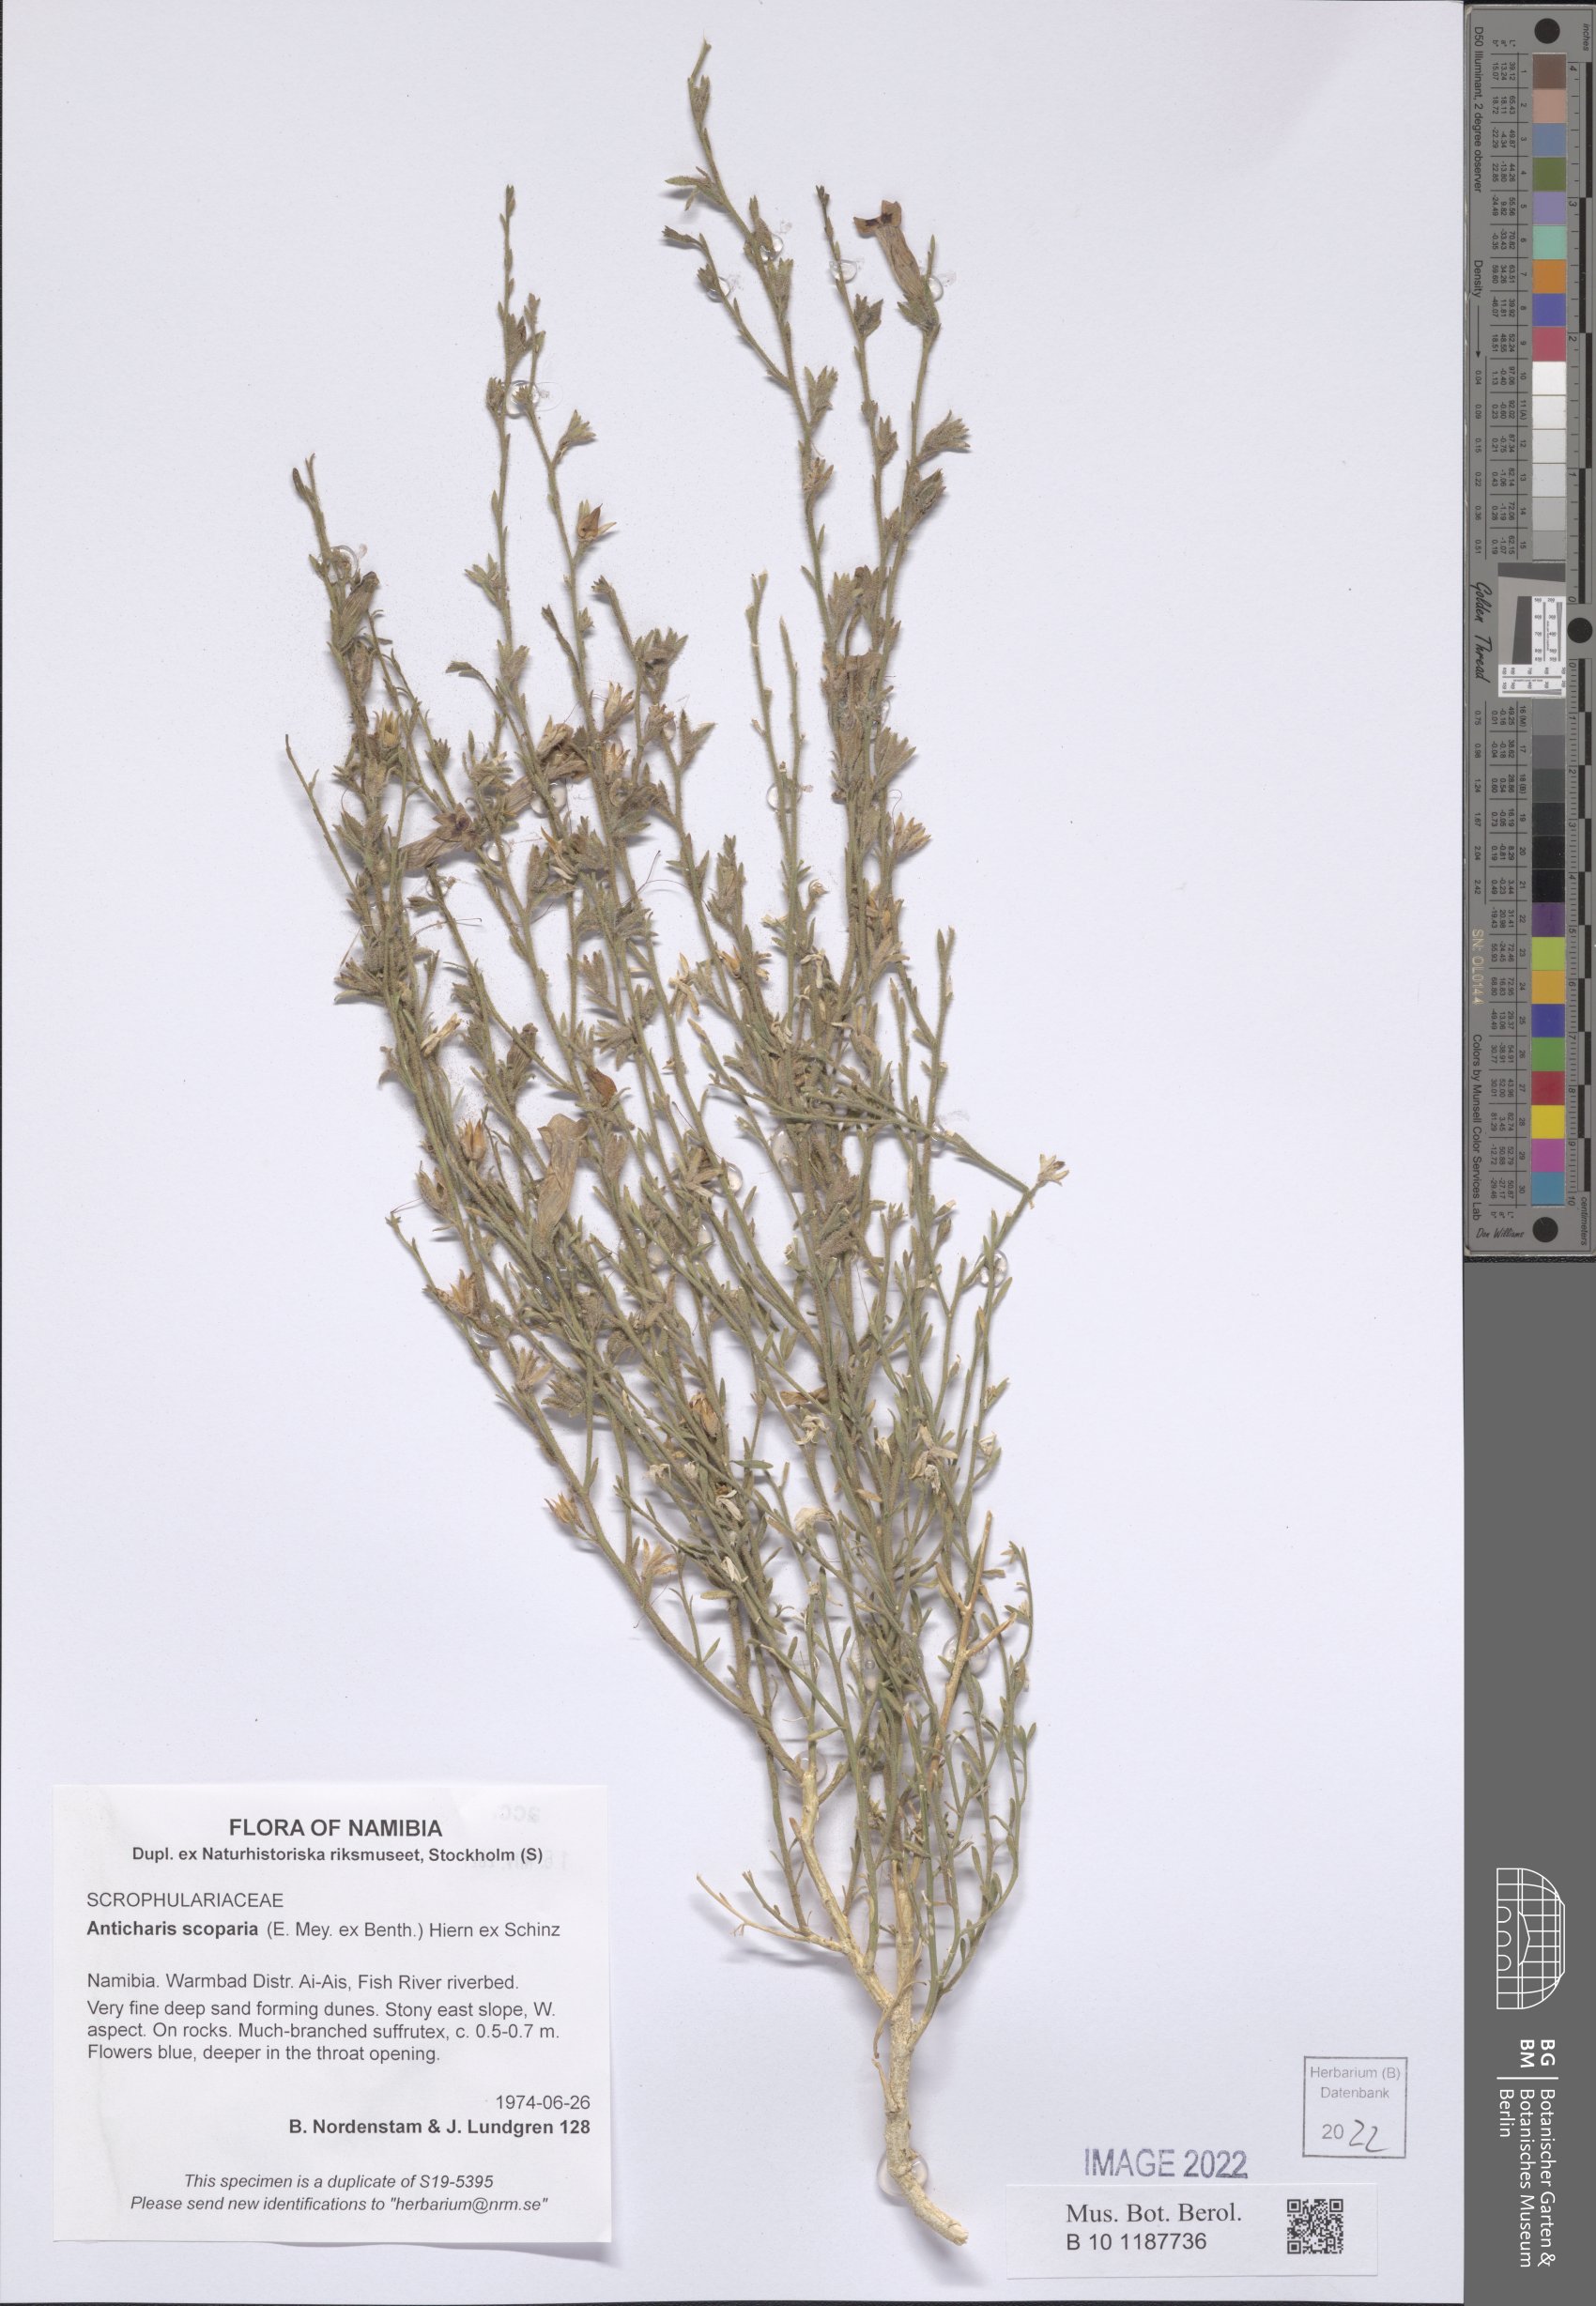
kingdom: Plantae
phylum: Tracheophyta
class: Magnoliopsida
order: Lamiales
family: Scrophulariaceae
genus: Anticharis
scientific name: Anticharis scoparia
